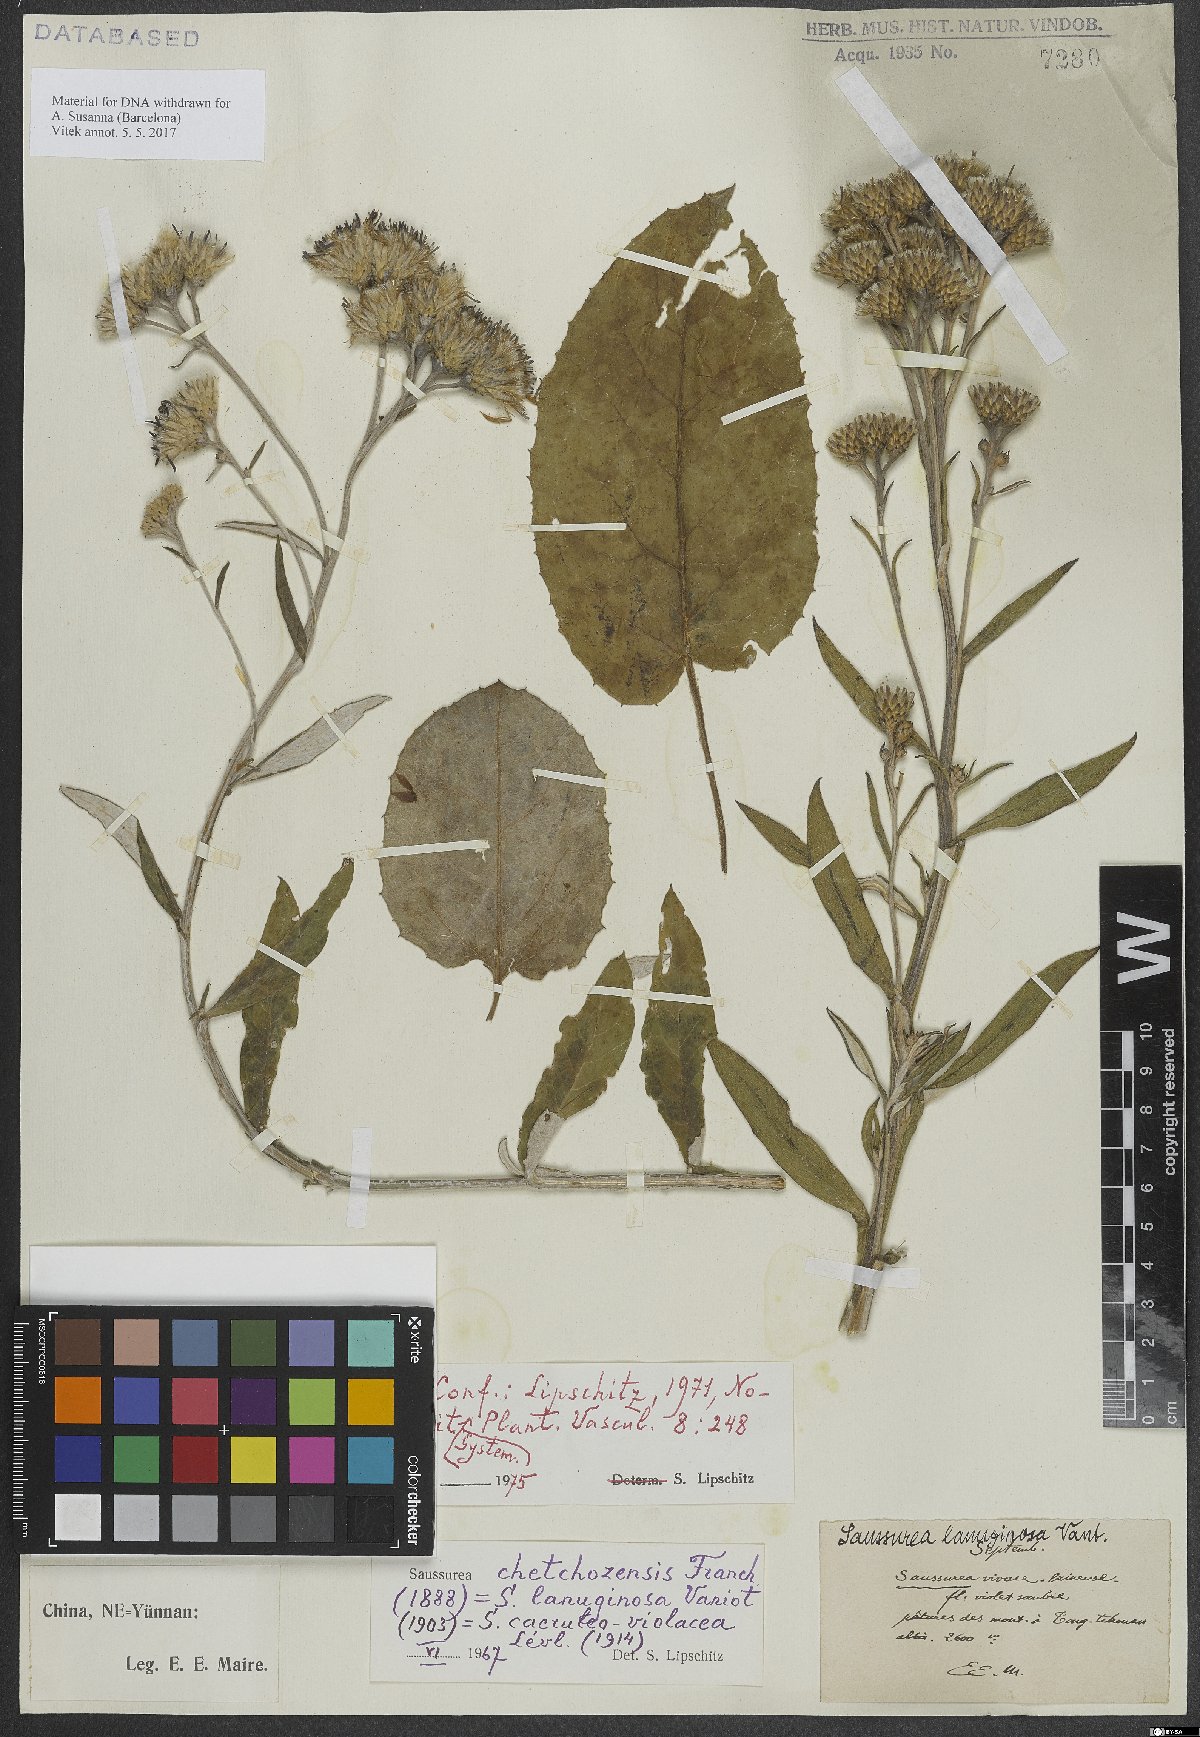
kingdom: Plantae
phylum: Tracheophyta
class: Magnoliopsida
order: Asterales
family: Asteraceae
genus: Saussurea
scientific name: Saussurea chetchozensis
